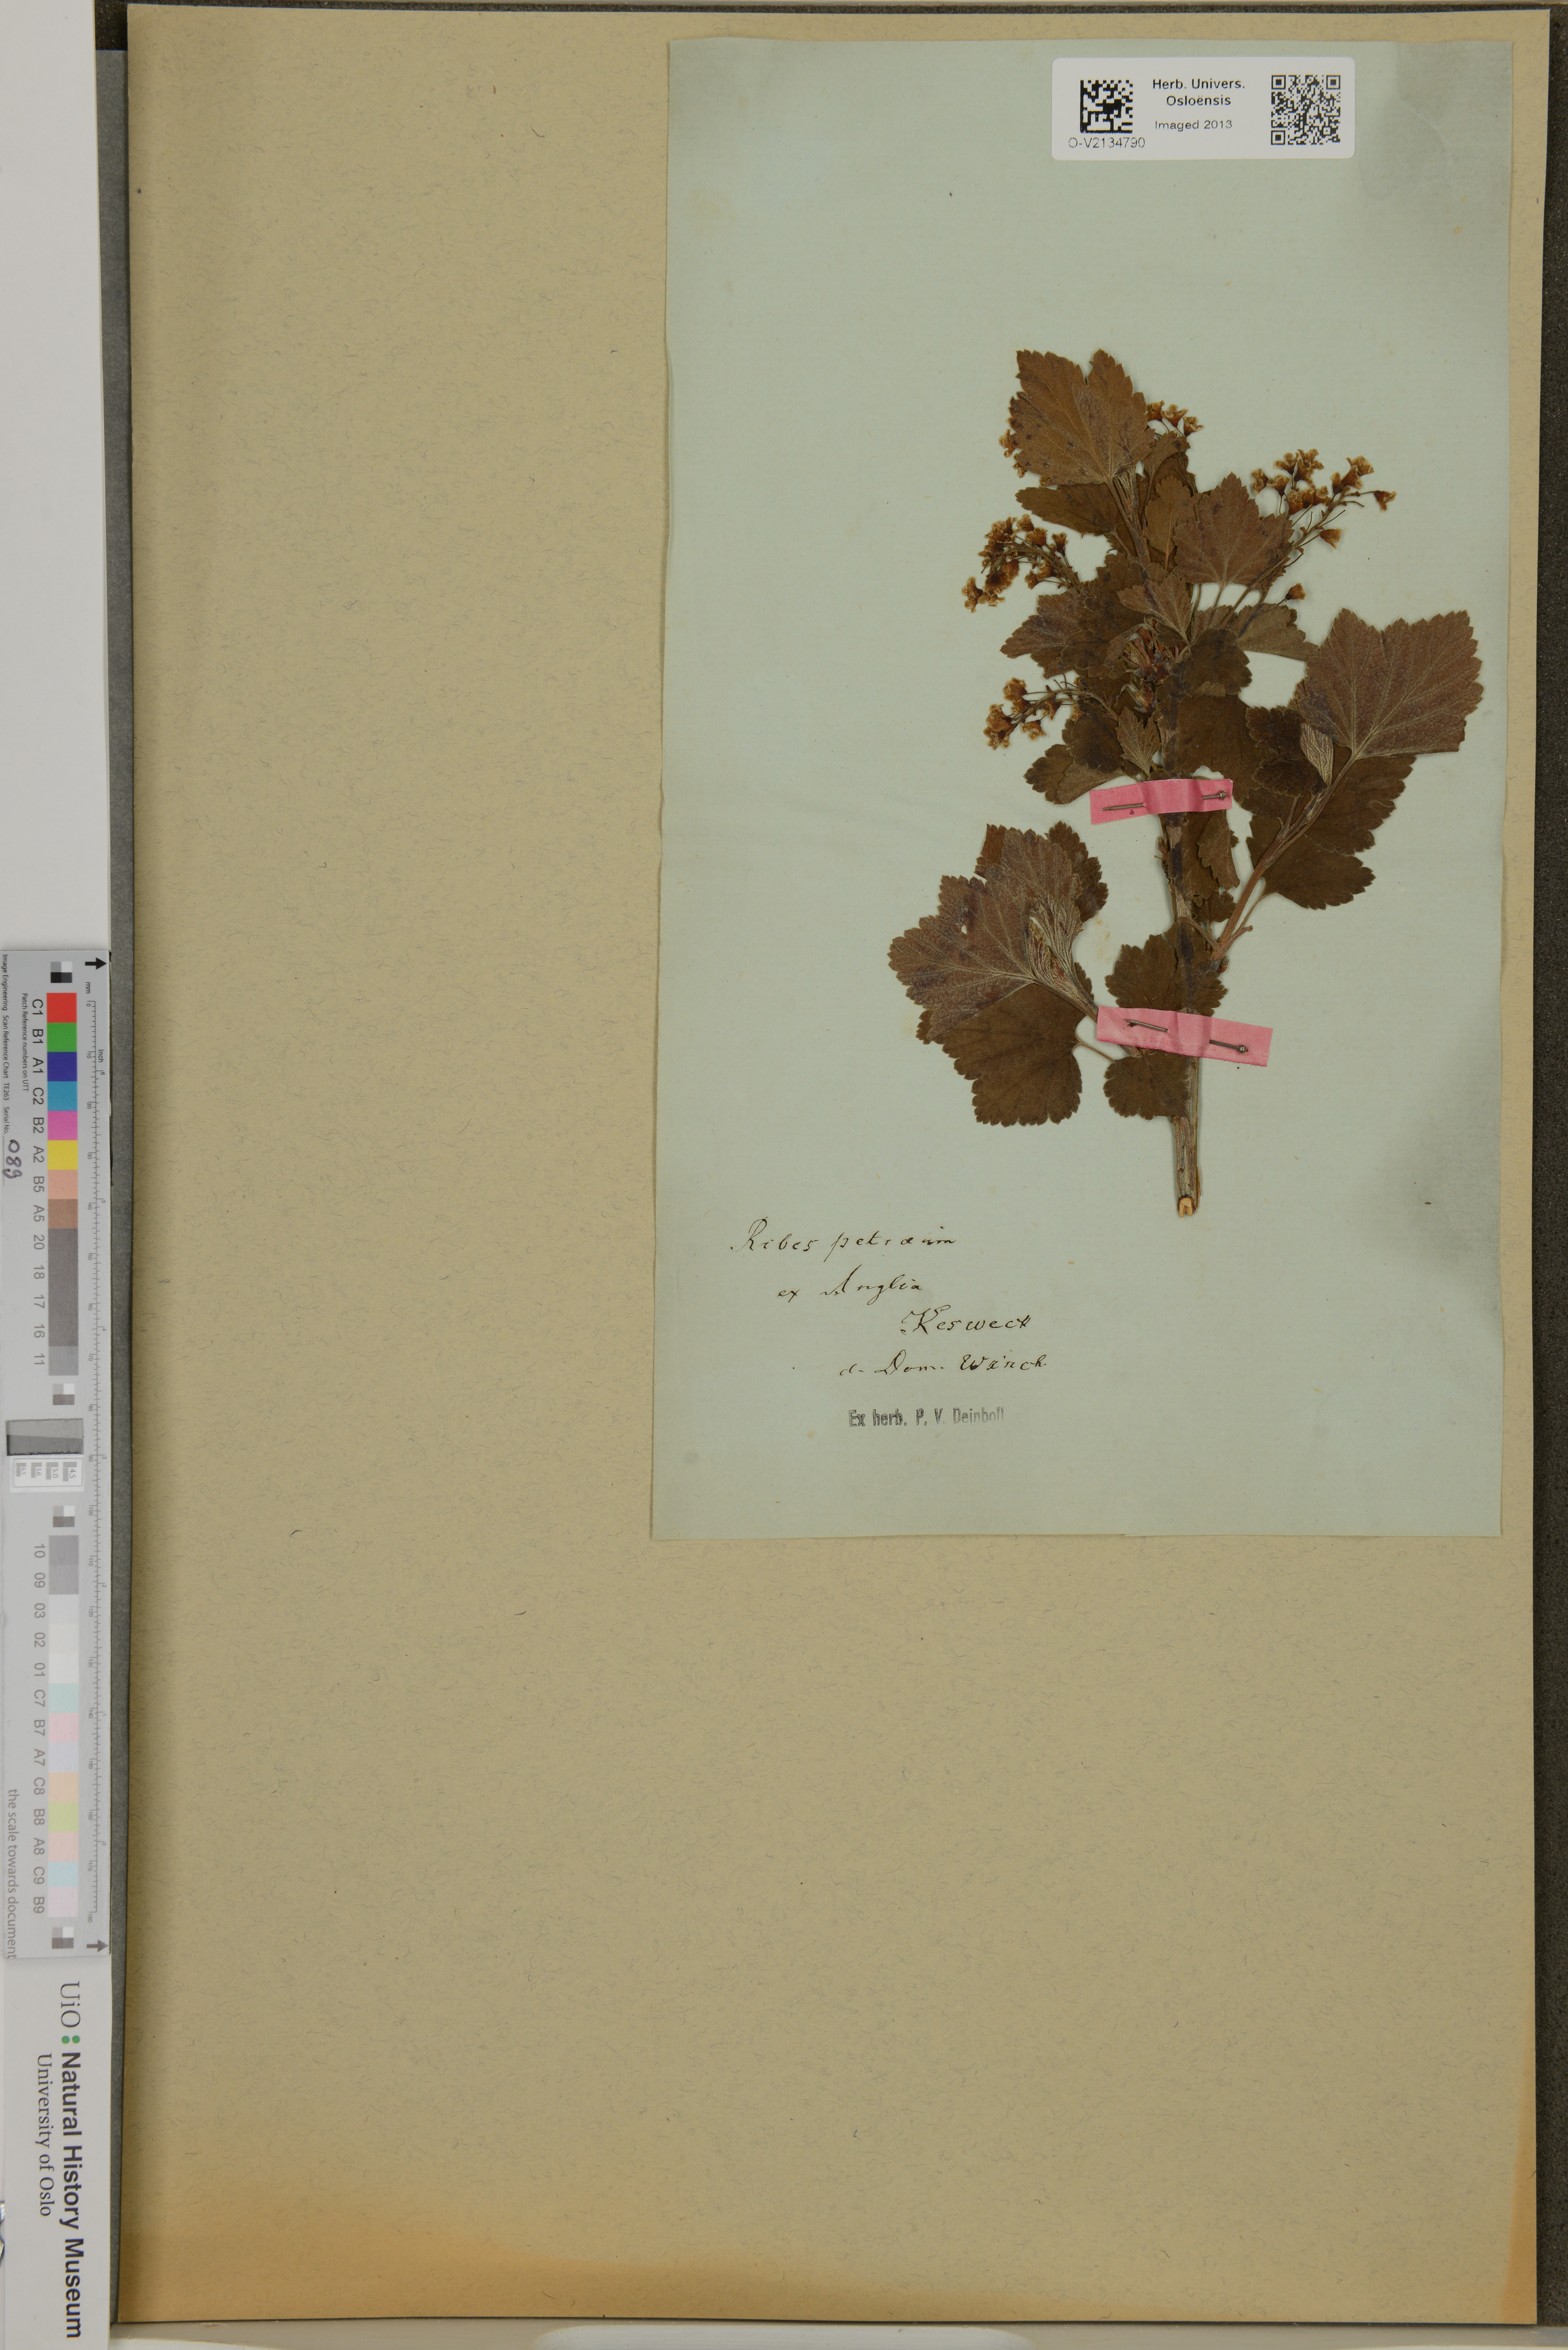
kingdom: Plantae
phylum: Tracheophyta
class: Magnoliopsida
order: Saxifragales
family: Grossulariaceae
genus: Ribes
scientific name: Ribes petraeum
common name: Rock currant
